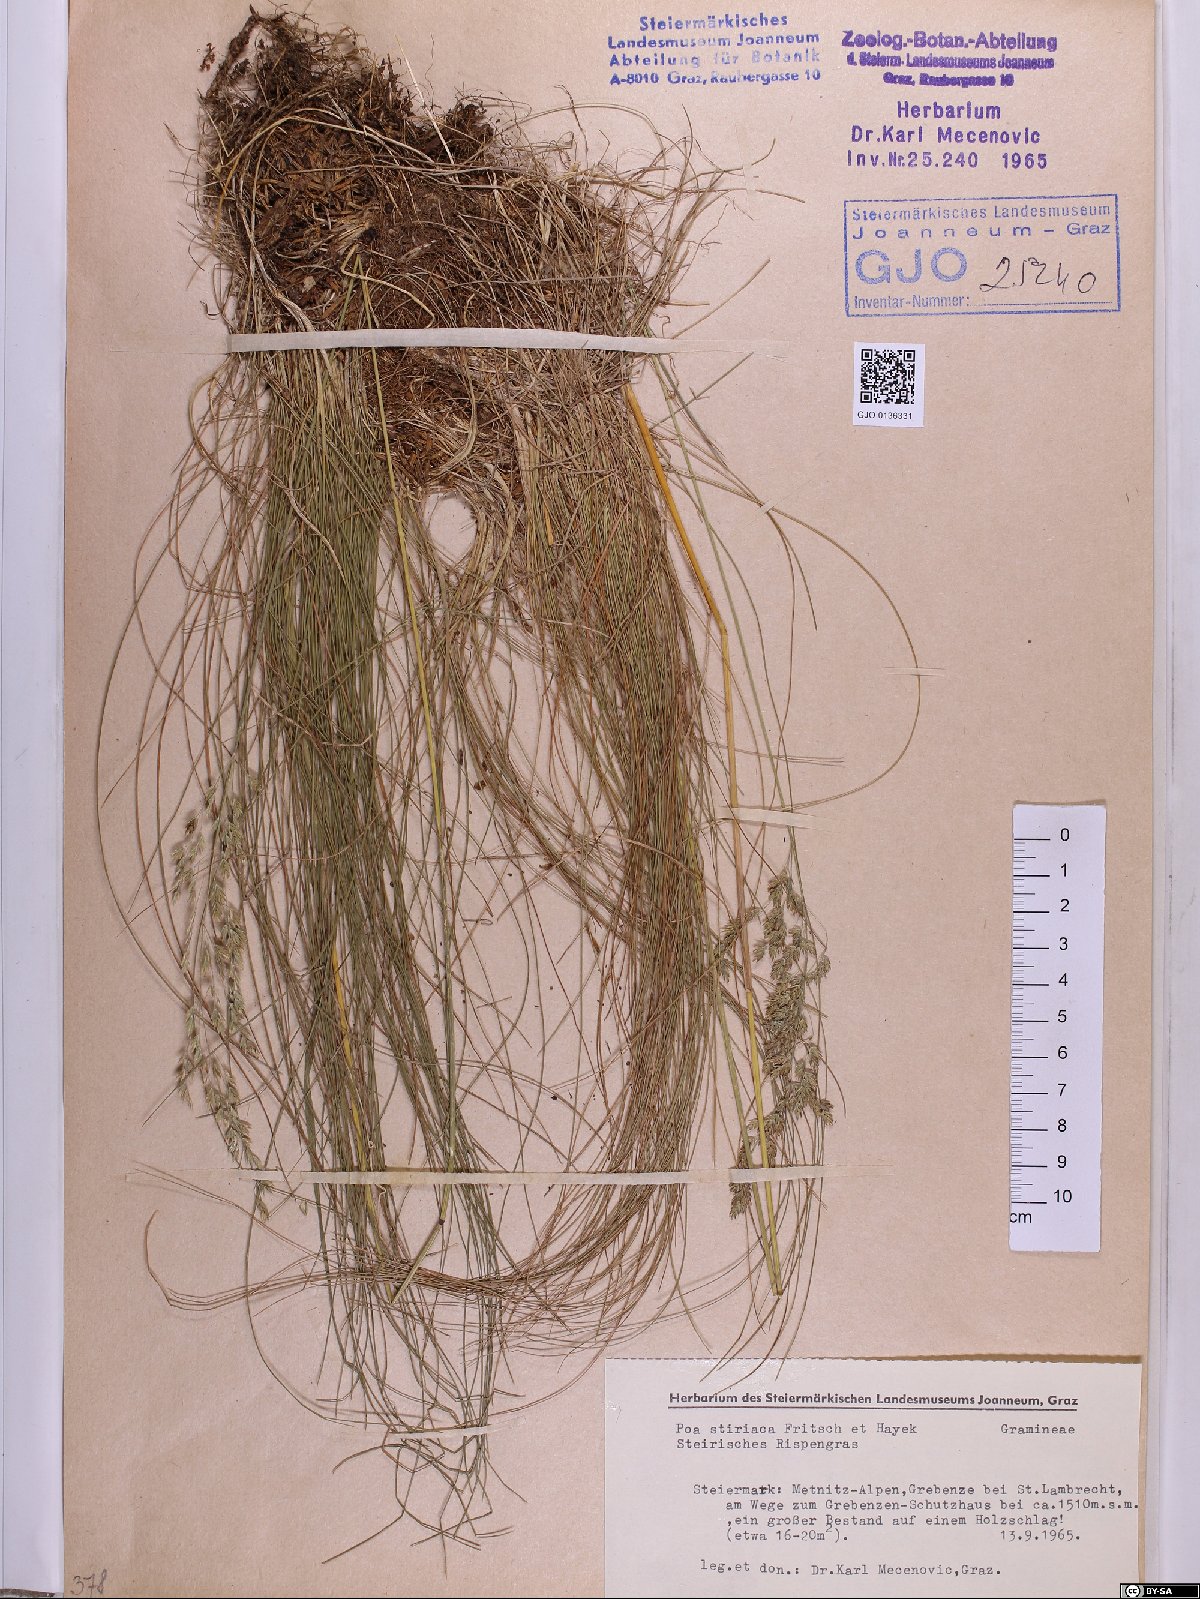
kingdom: Plantae
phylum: Tracheophyta
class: Liliopsida
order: Poales
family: Poaceae
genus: Poa
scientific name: Poa stiriaca
